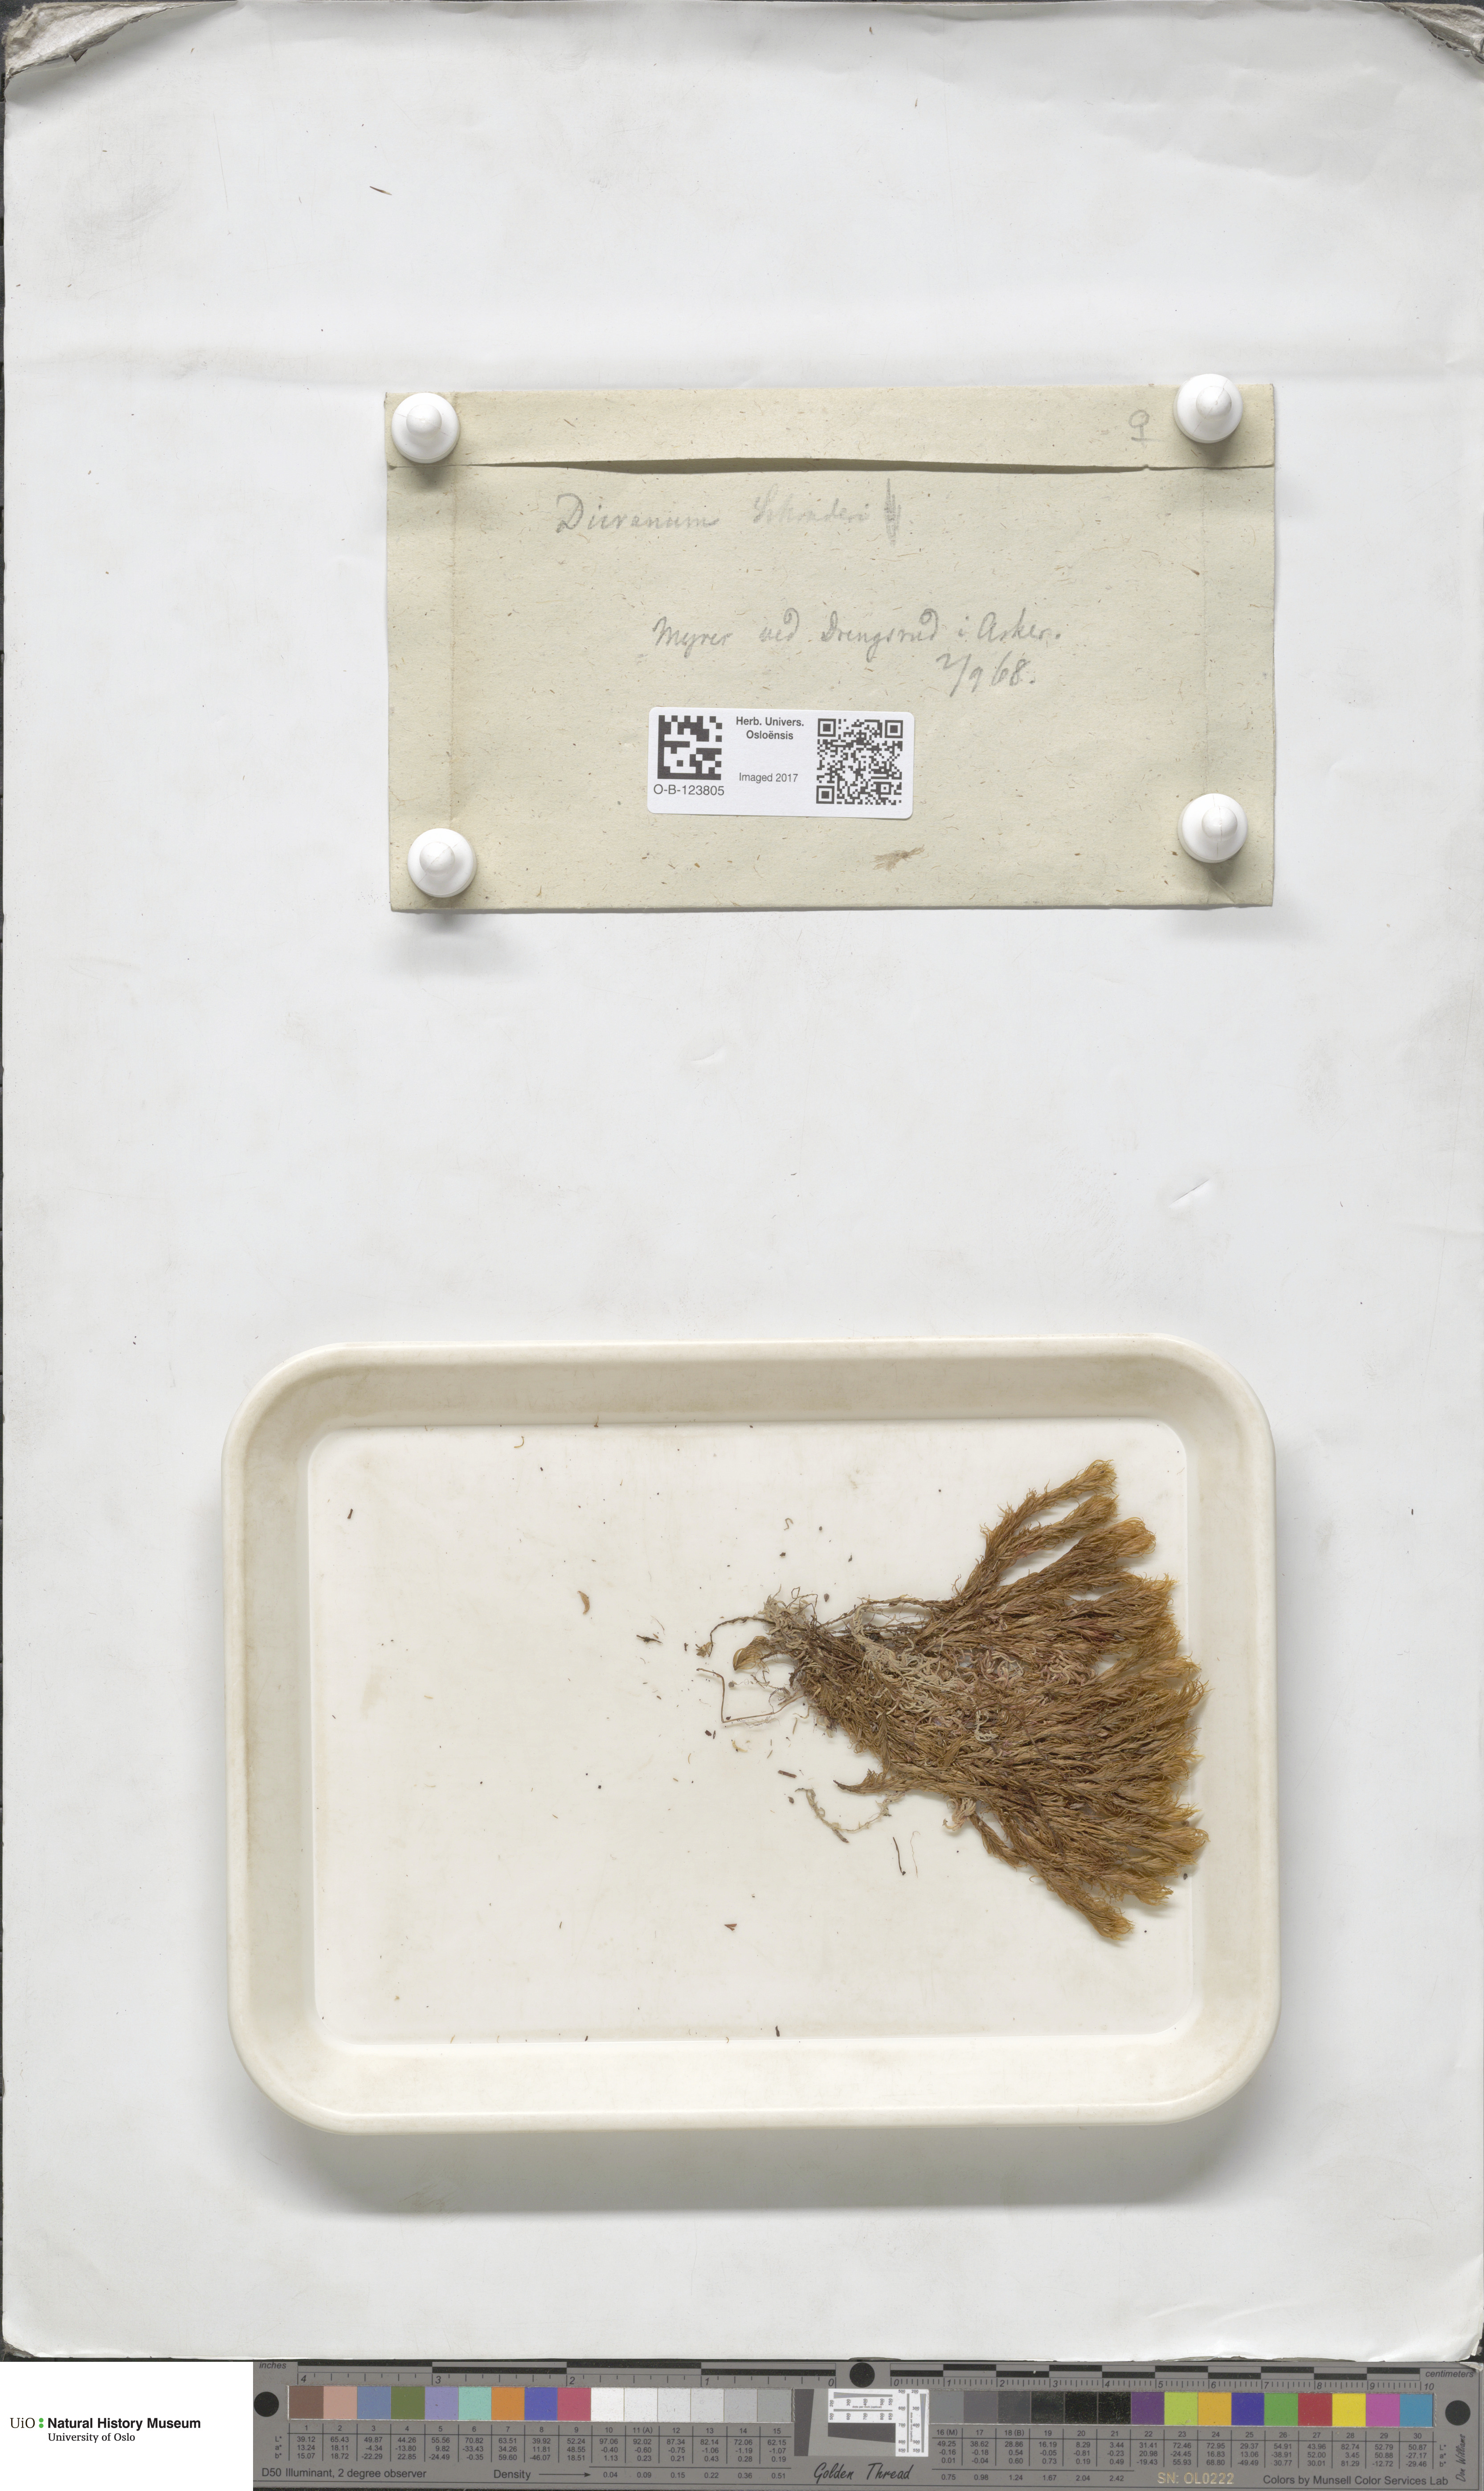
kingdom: Plantae
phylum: Bryophyta
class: Bryopsida
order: Dicranales
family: Dicranaceae
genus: Dicranum
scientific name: Dicranum undulatum
